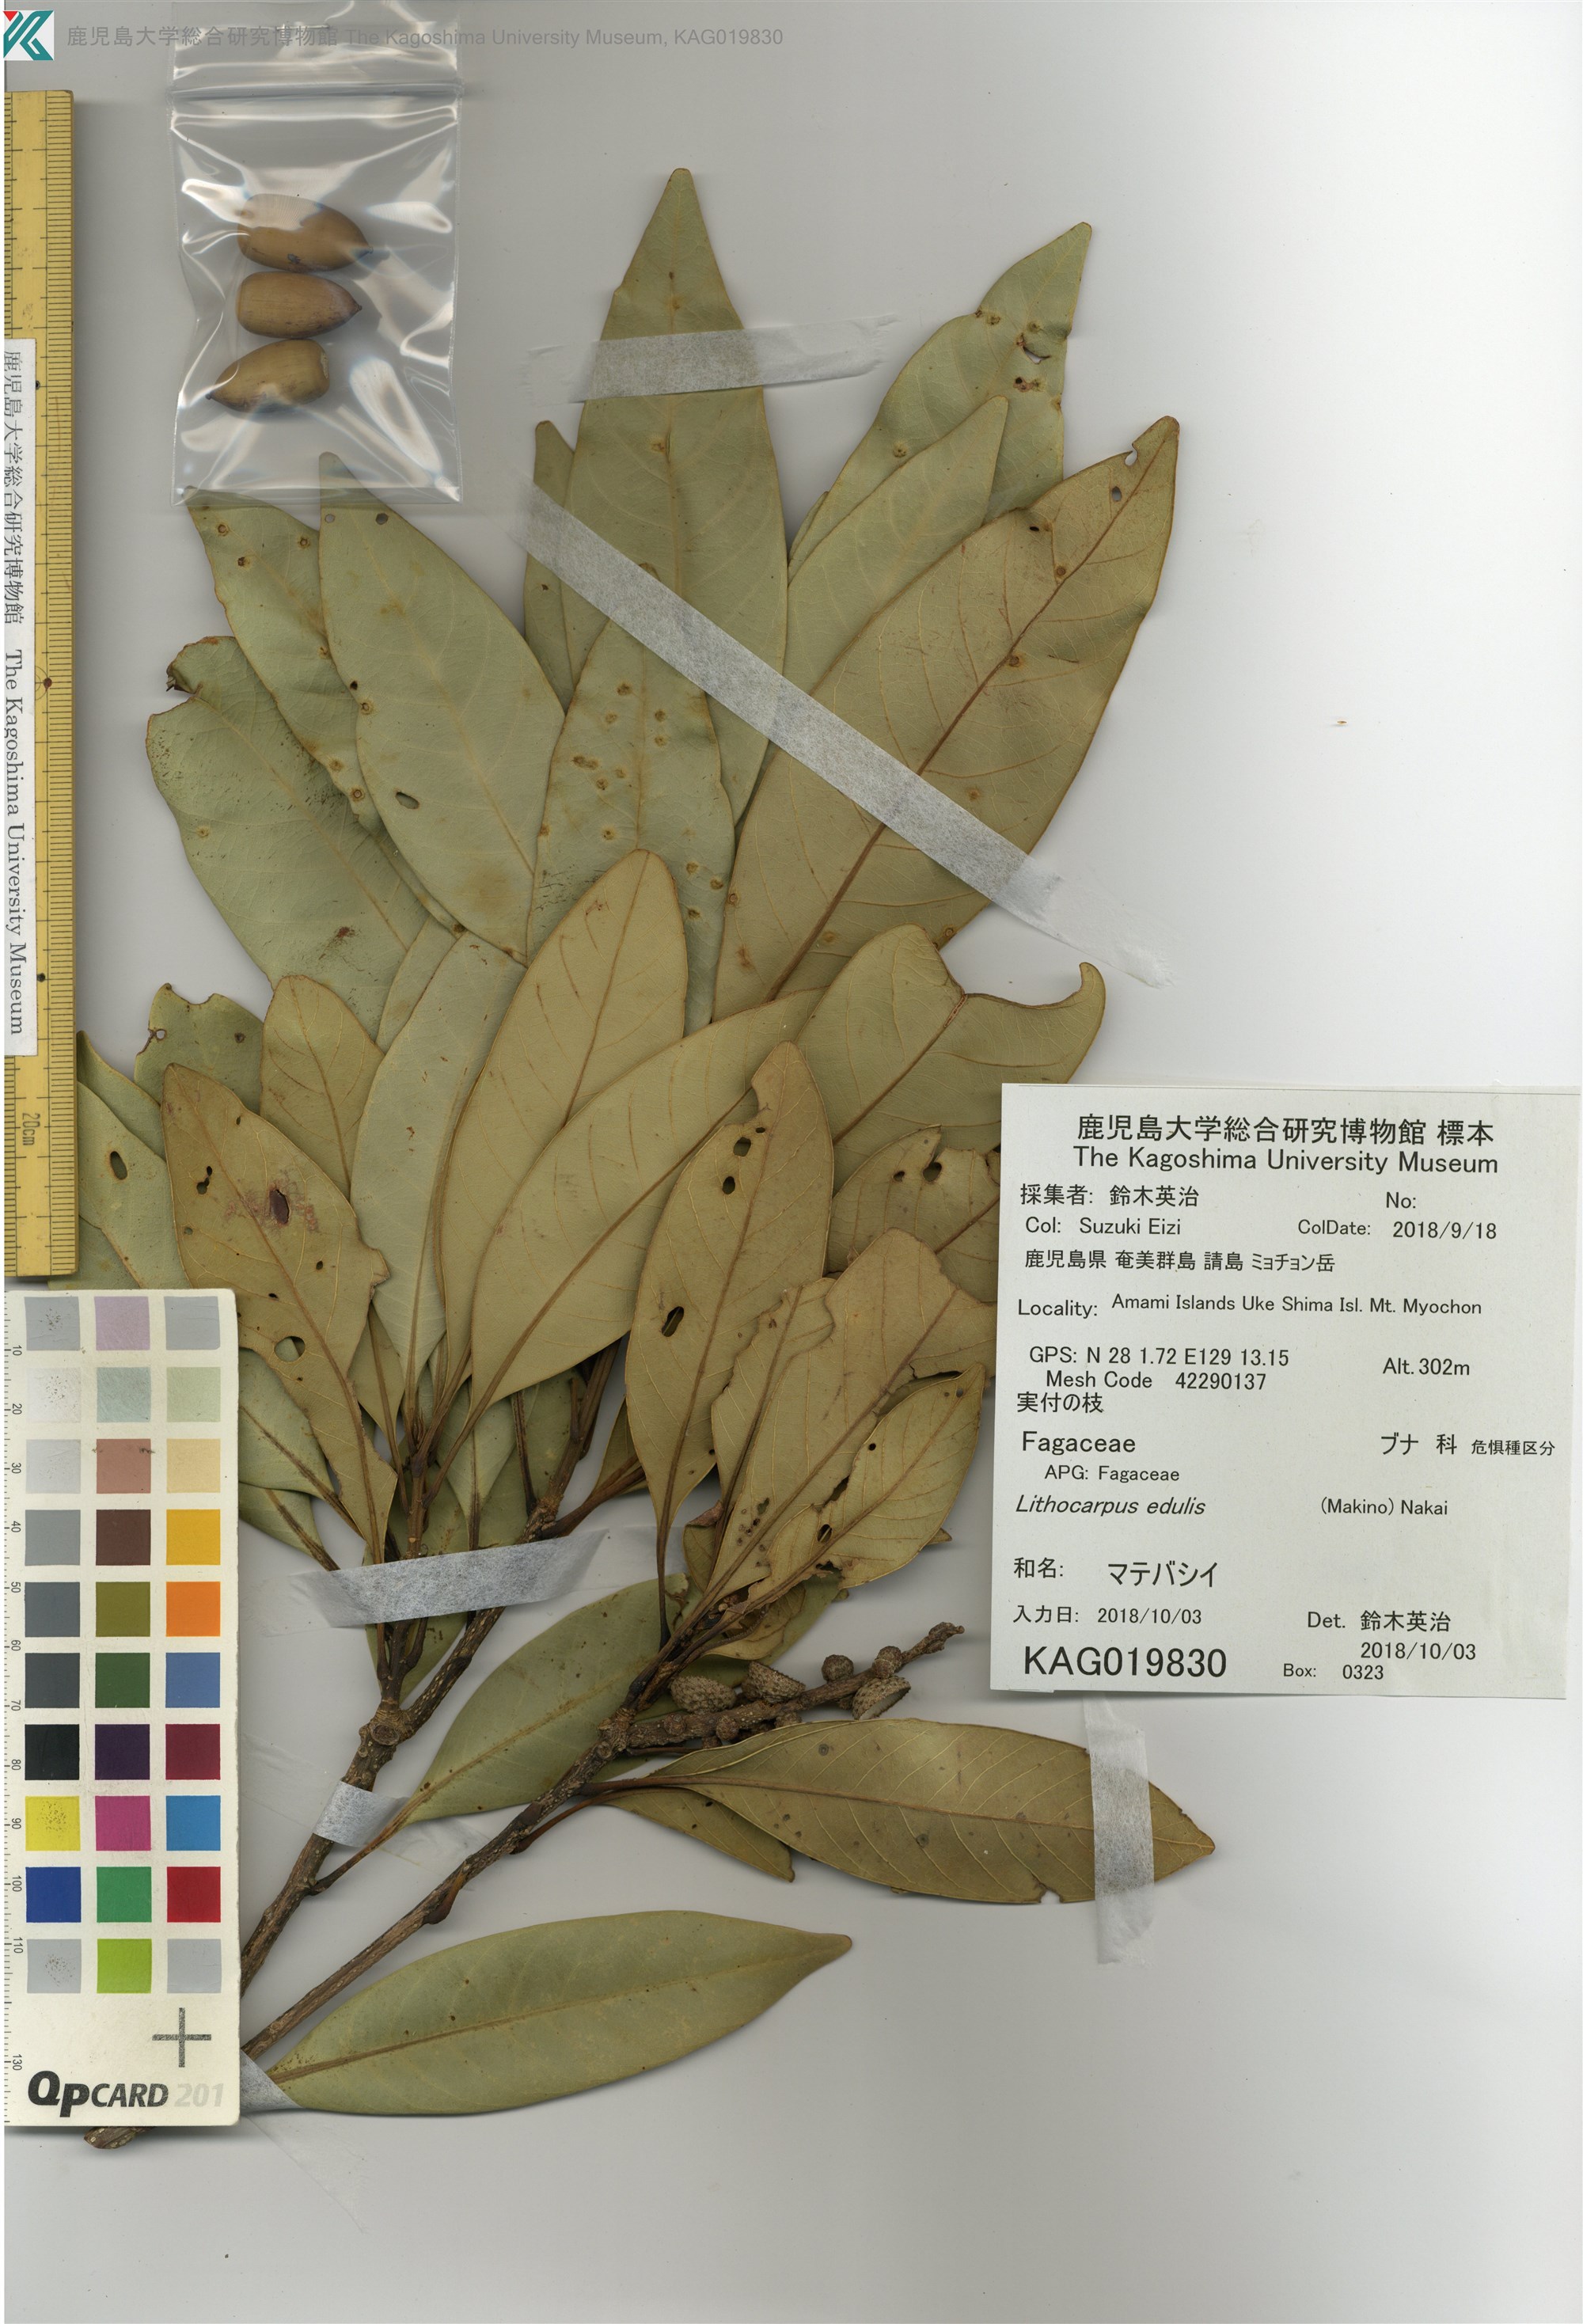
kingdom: Plantae
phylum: Tracheophyta
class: Magnoliopsida
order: Fagales
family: Fagaceae
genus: Lithocarpus
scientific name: Lithocarpus edulis
